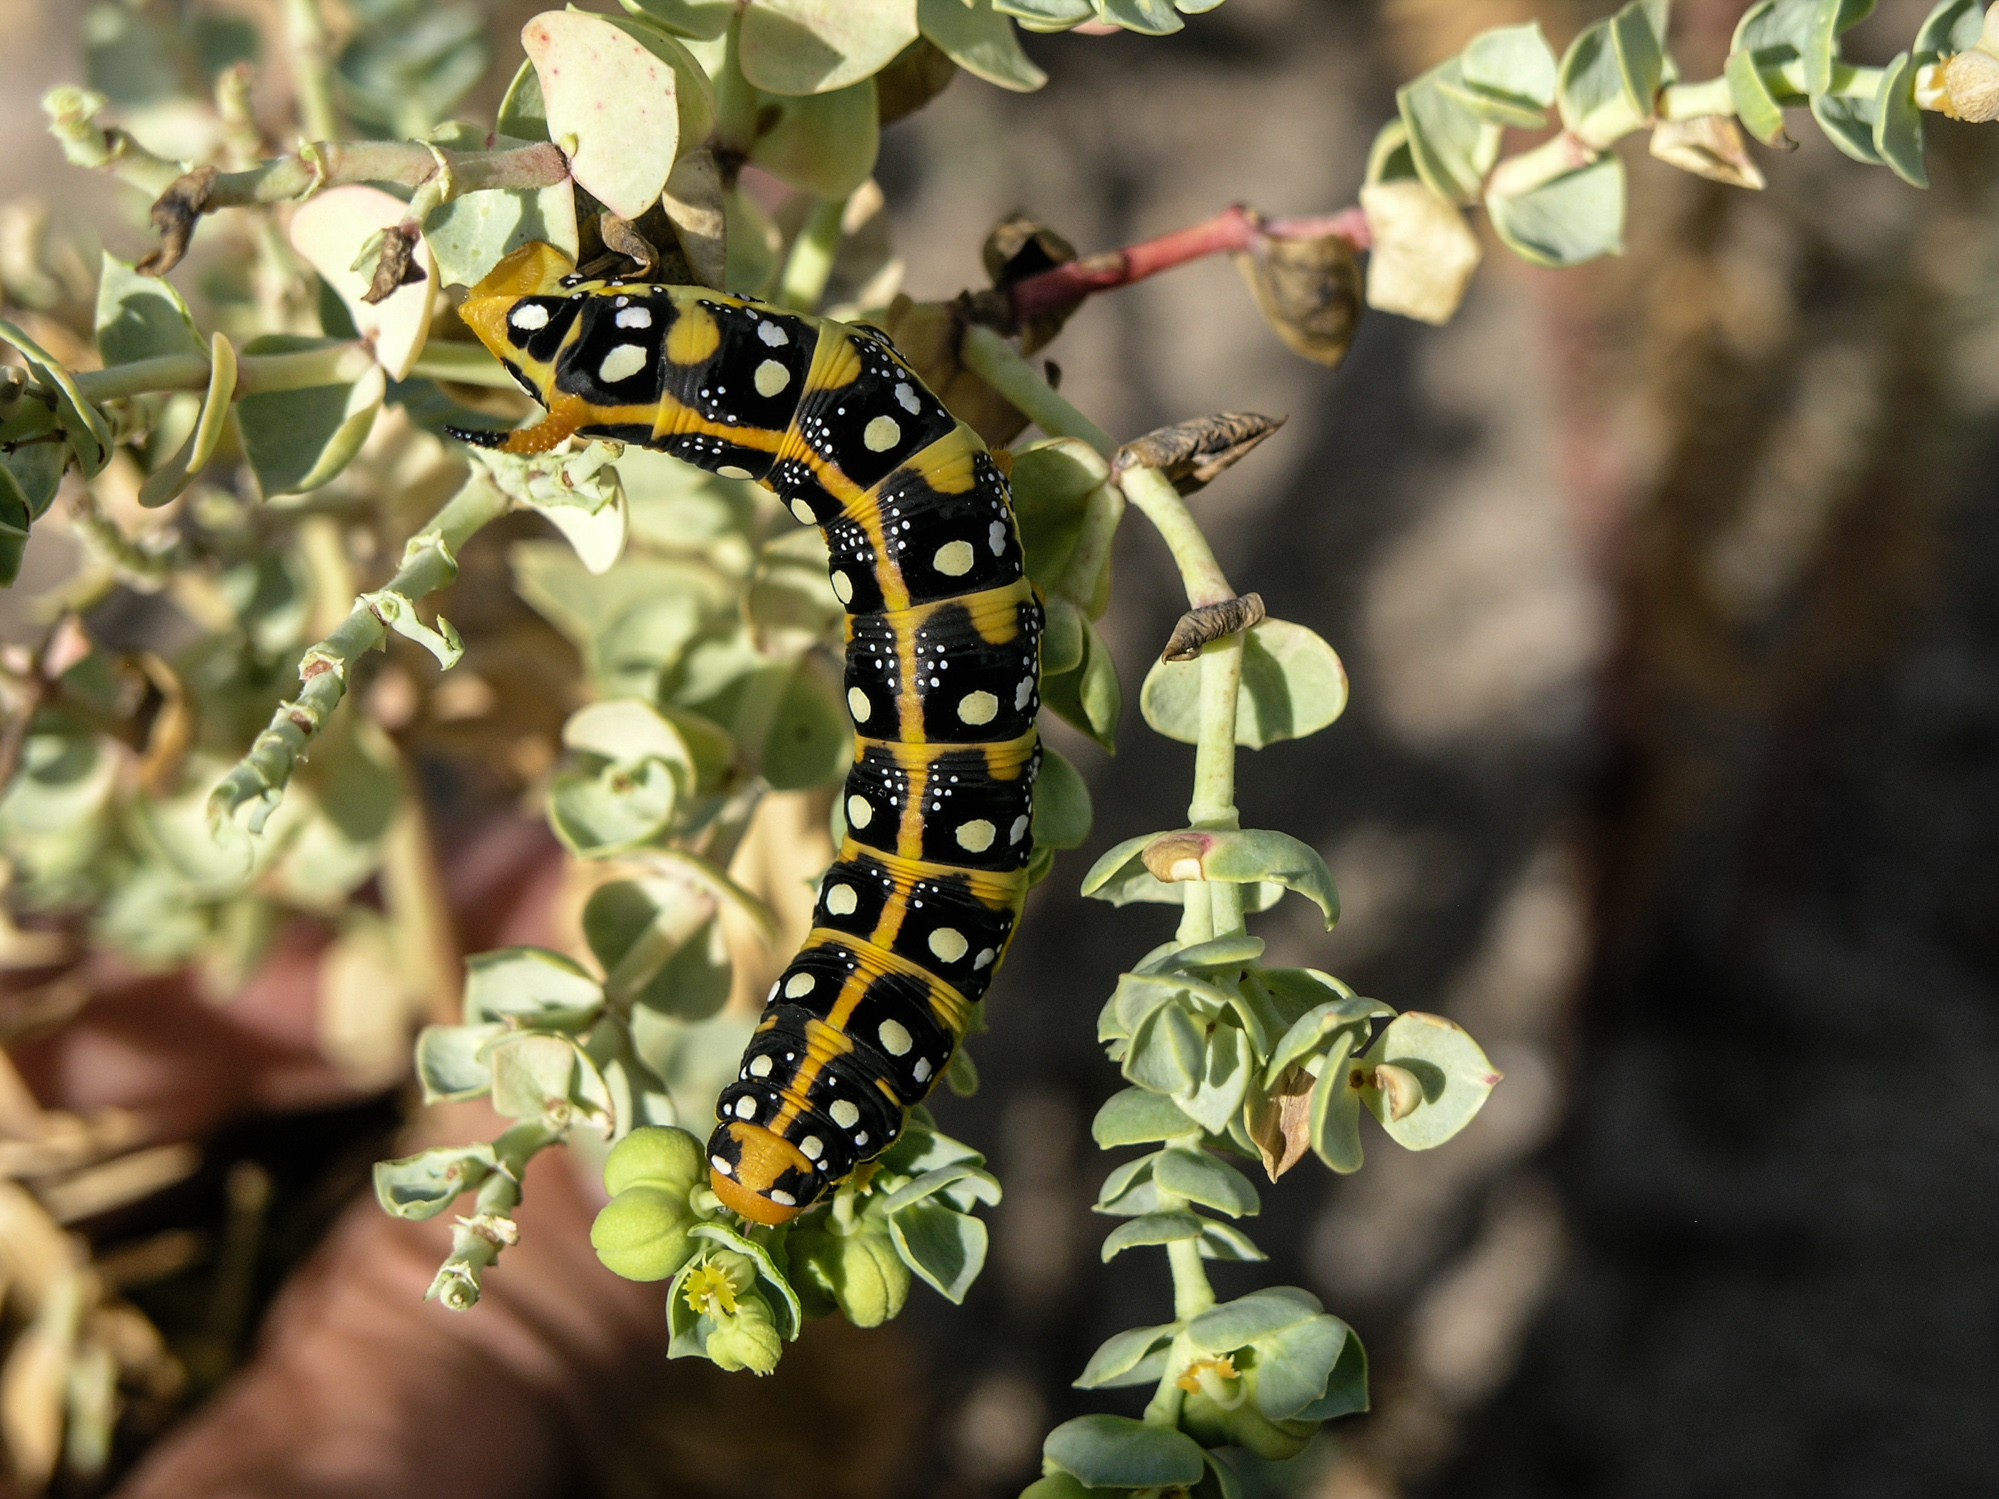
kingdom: Animalia
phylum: Arthropoda
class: Insecta
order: Lepidoptera
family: Sphingidae
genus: Hyles
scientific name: Hyles euphorbiae
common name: Spurge hawk-moth
